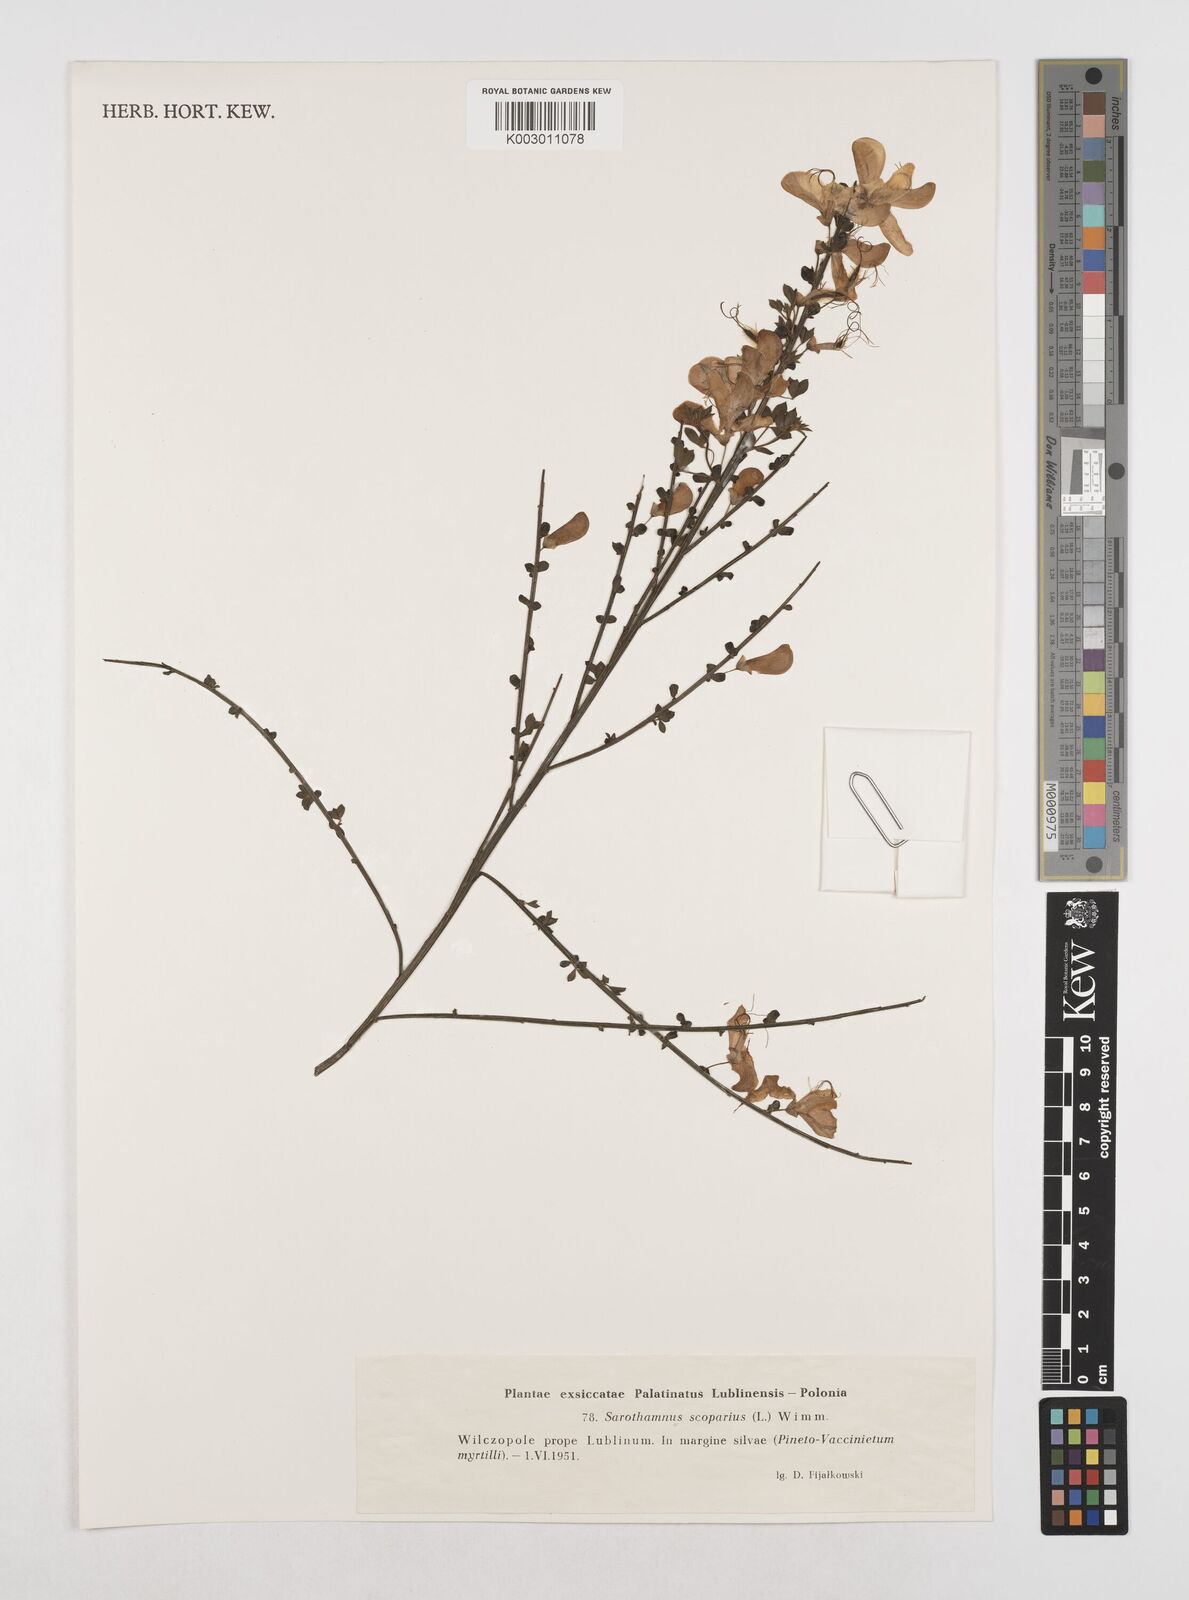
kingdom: Plantae
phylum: Tracheophyta
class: Magnoliopsida
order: Fabales
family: Fabaceae
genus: Cytisus
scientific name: Cytisus scoparius
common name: Scotch broom
